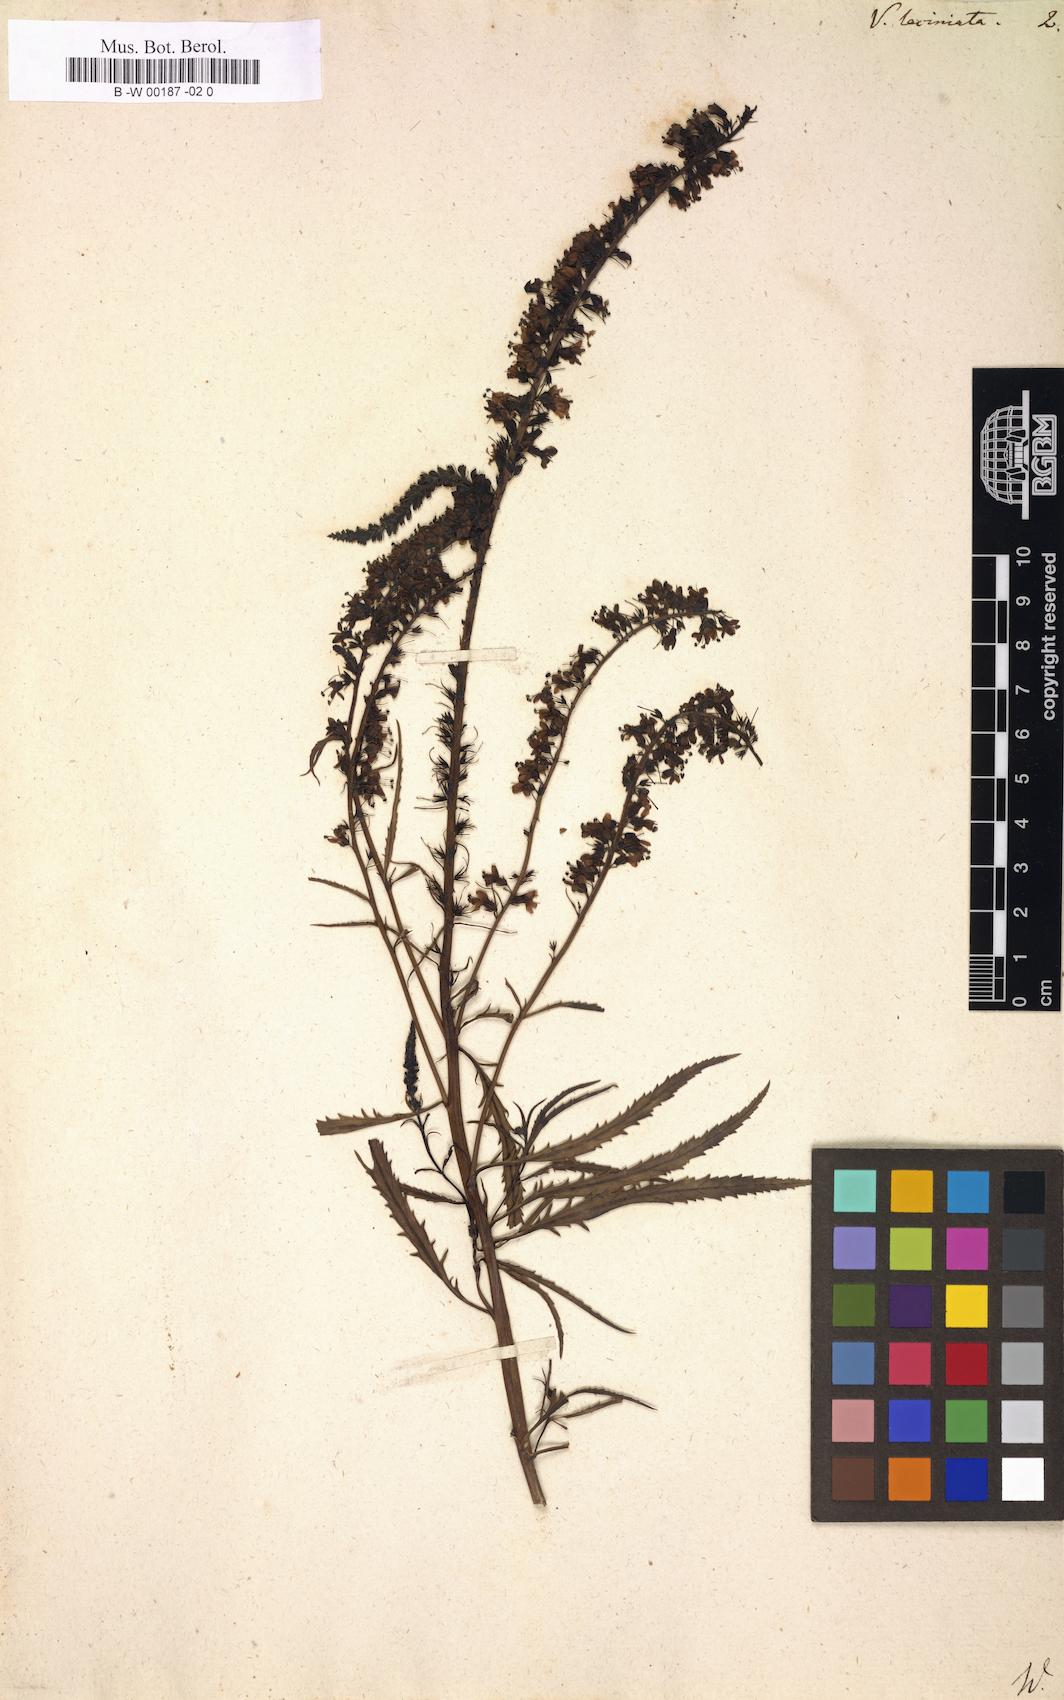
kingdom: Plantae
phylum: Tracheophyta
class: Magnoliopsida
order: Lamiales
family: Plantaginaceae
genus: Veronica
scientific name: Veronica laciniata
